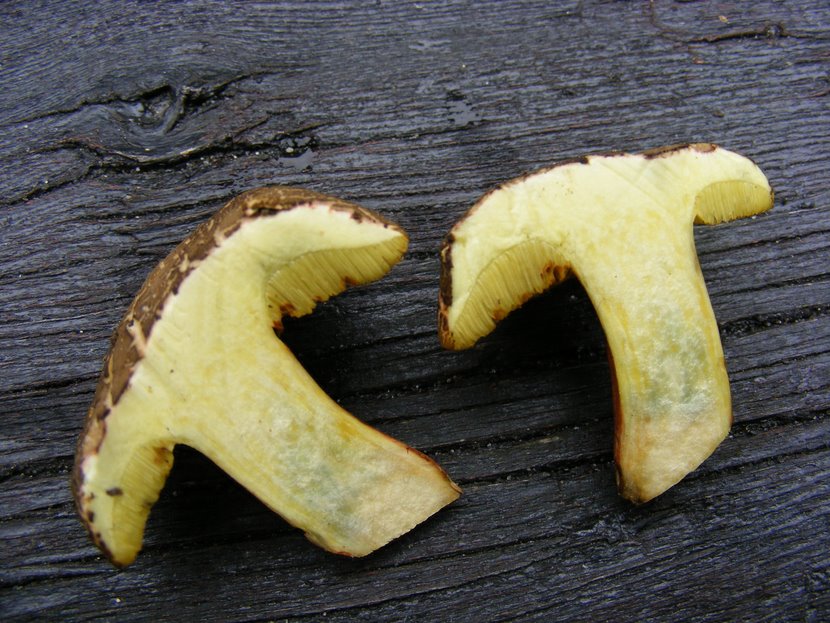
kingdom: Fungi
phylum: Basidiomycota
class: Agaricomycetes
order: Boletales
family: Boletaceae
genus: Xerocomellus
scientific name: Xerocomellus chrysenteron
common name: rødsprukken rørhat
